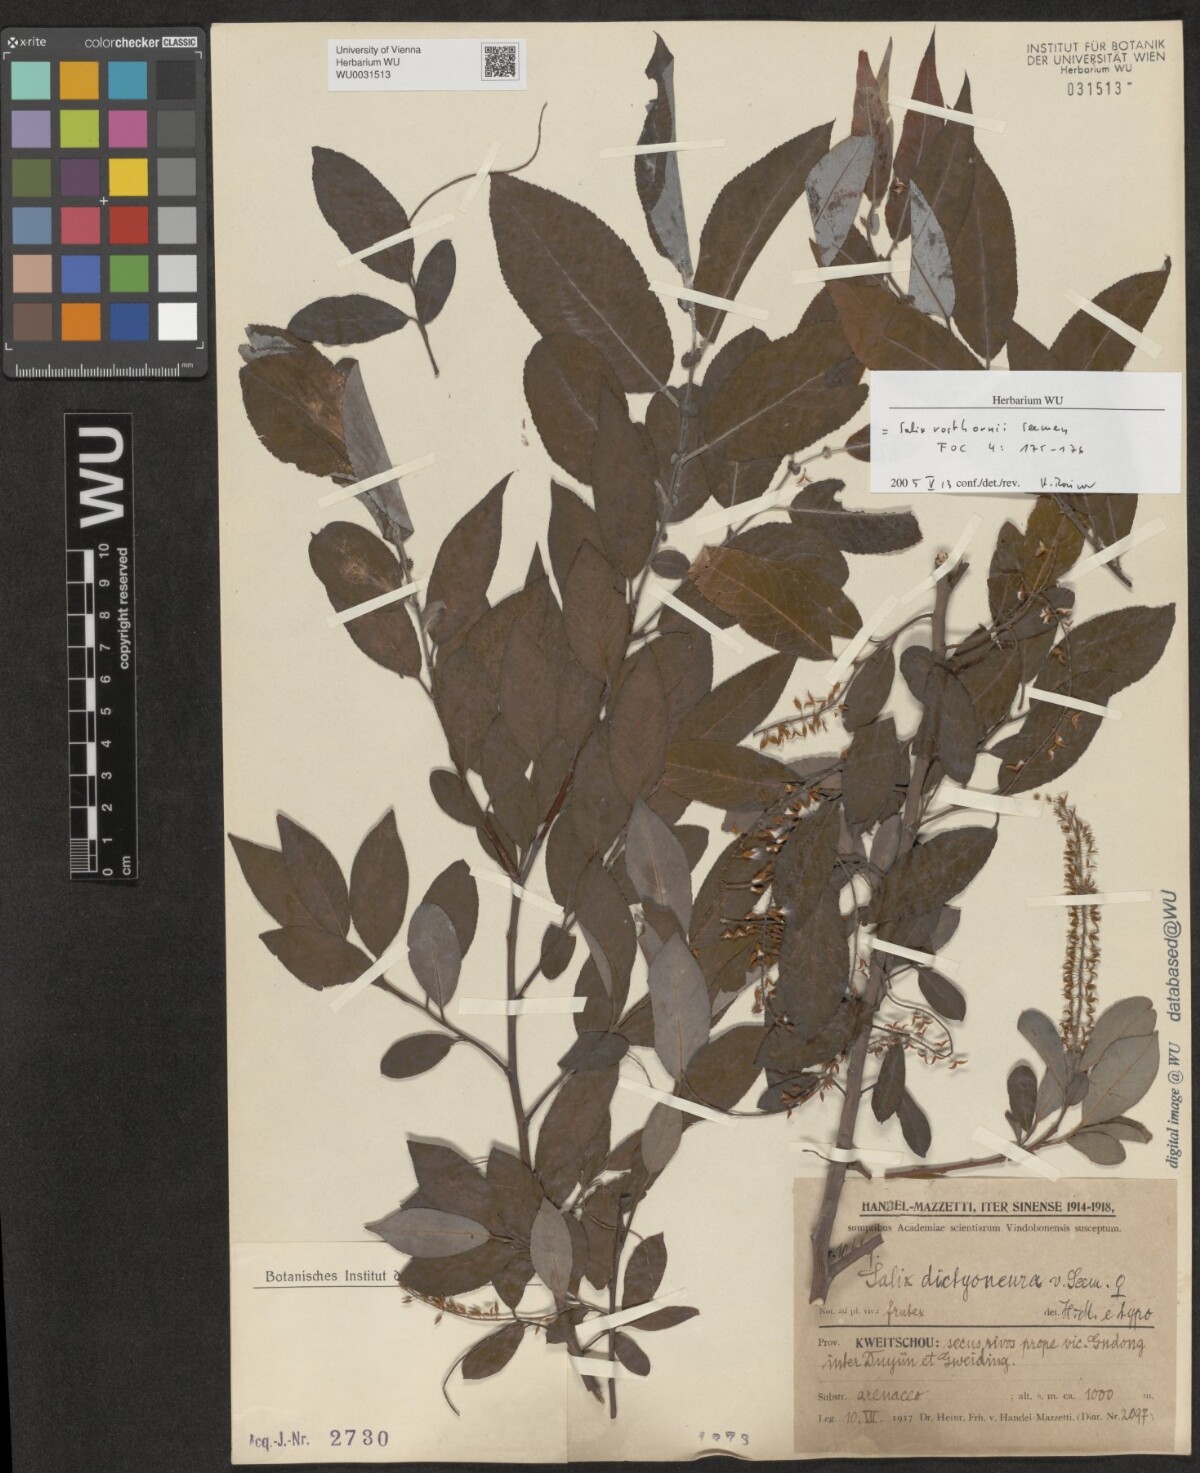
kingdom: Plantae
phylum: Tracheophyta
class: Magnoliopsida
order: Malpighiales
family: Salicaceae
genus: Salix
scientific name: Salix rosthornii
